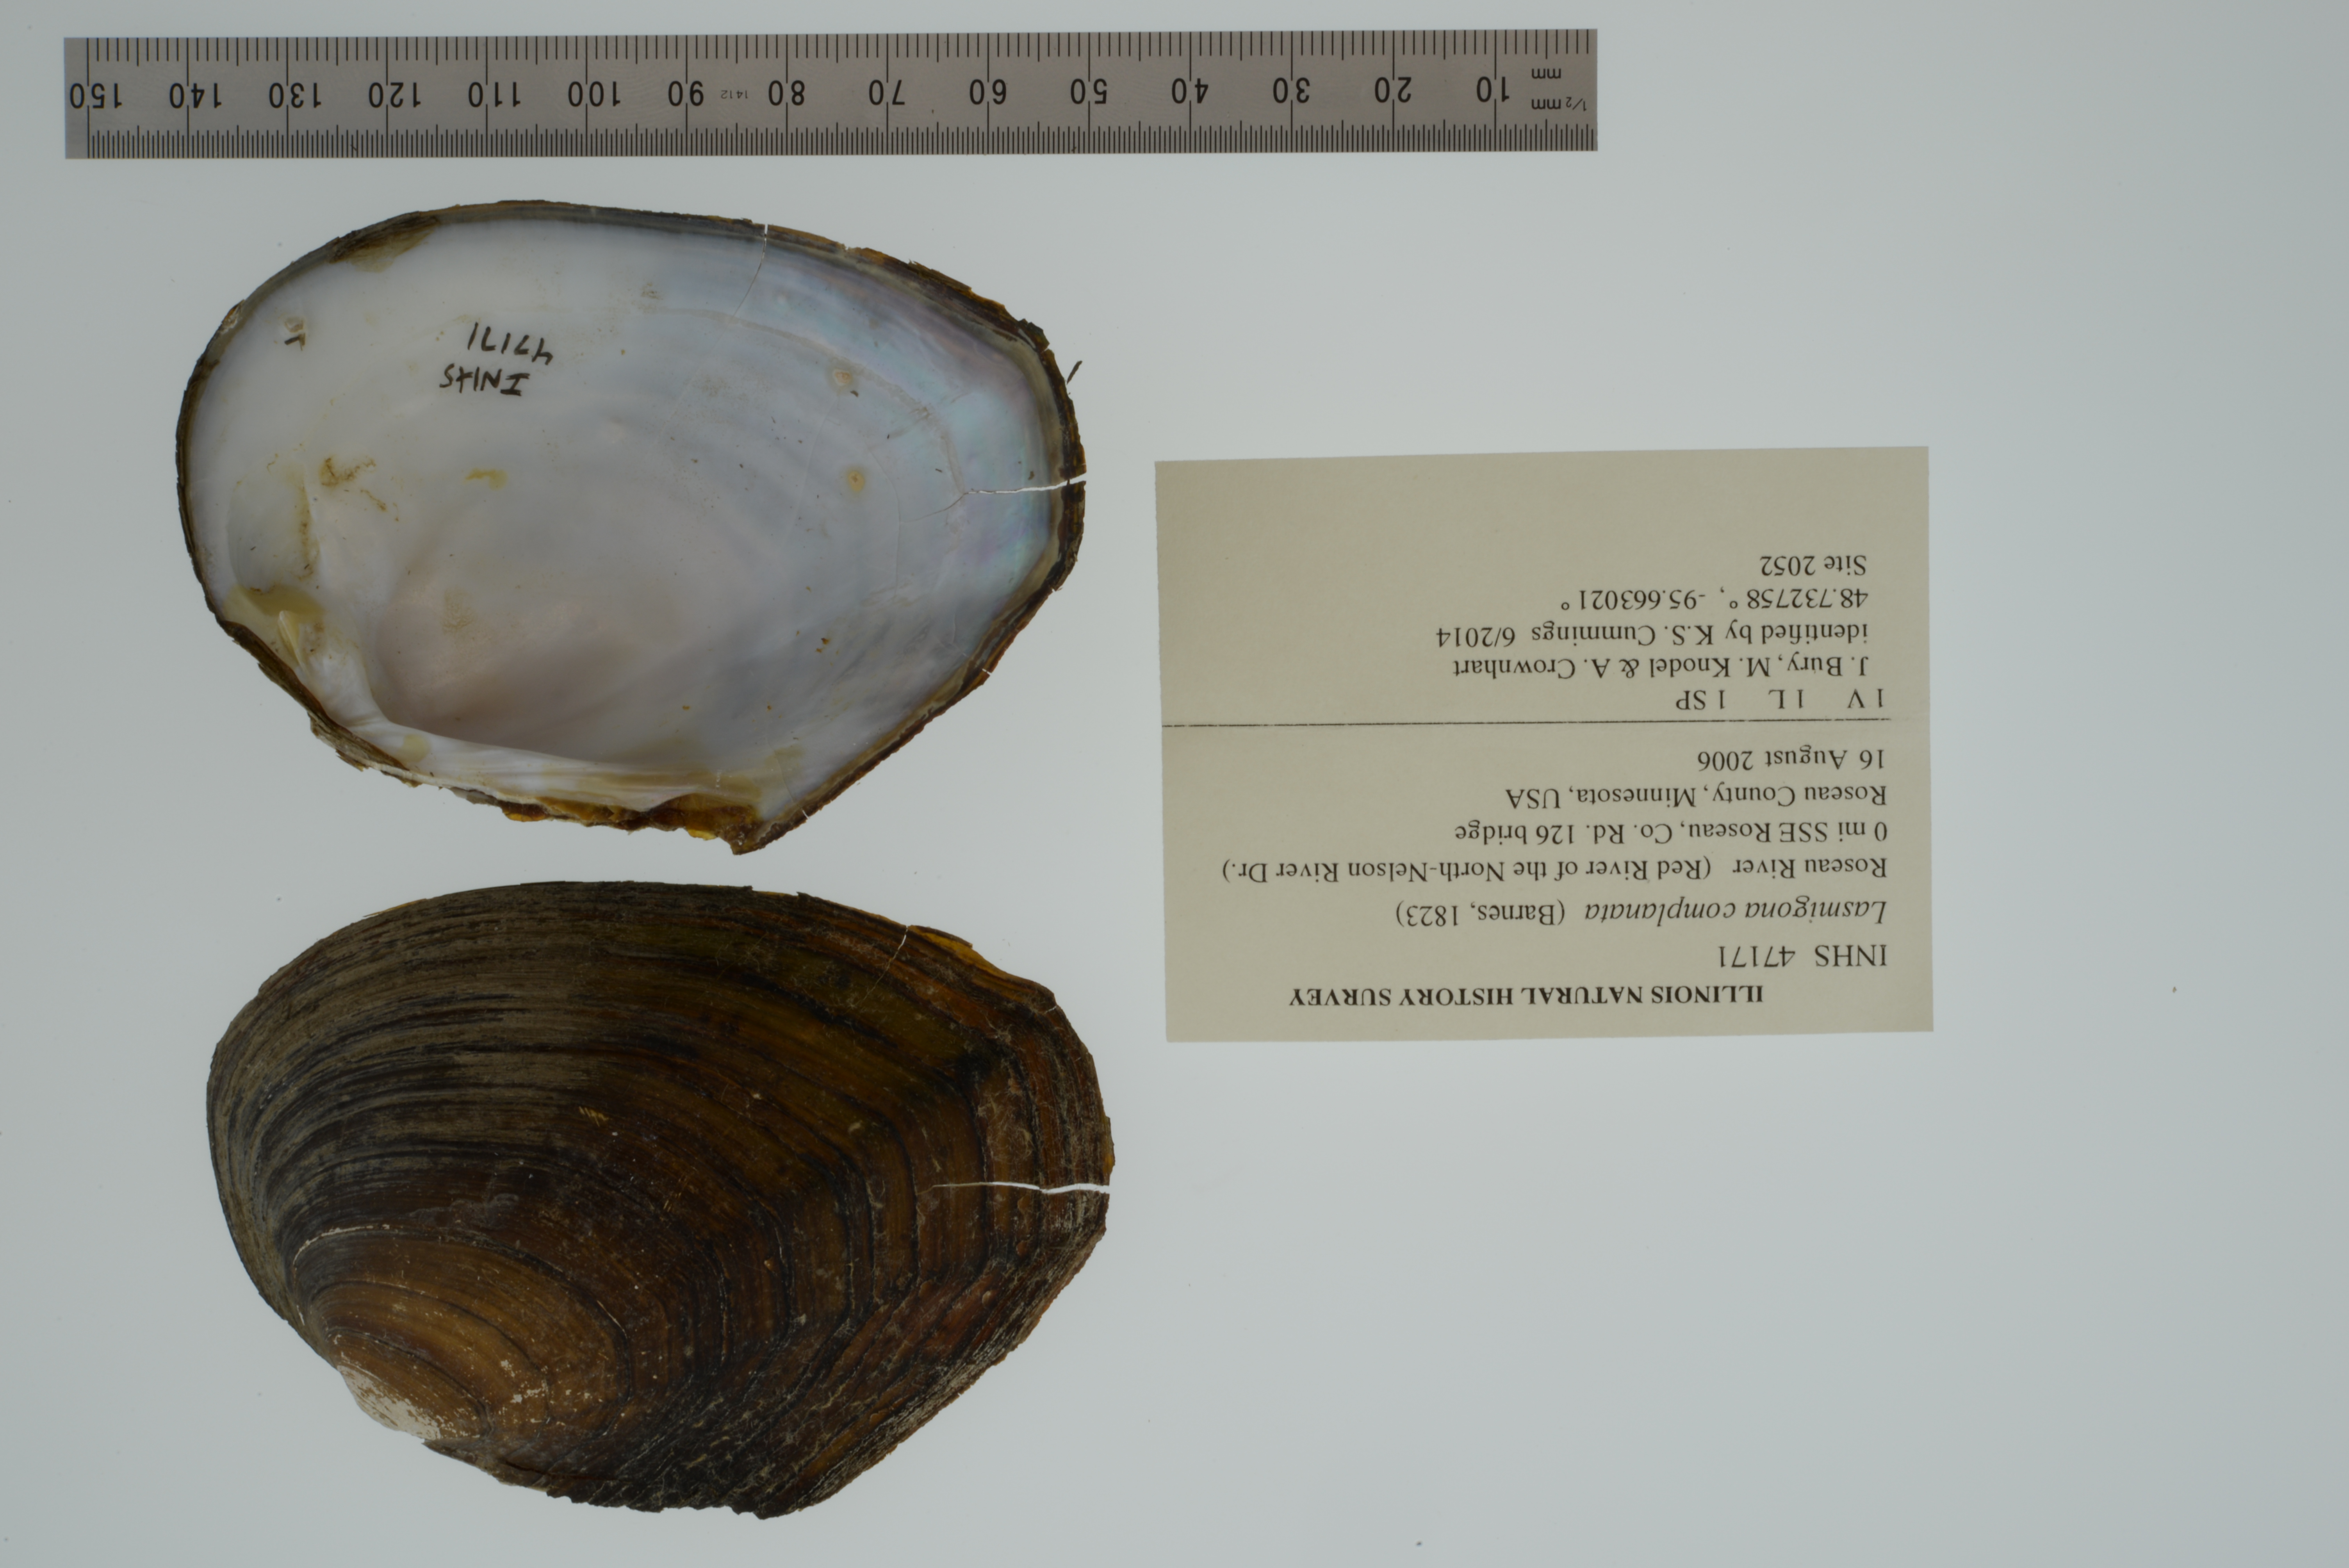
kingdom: Animalia
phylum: Mollusca
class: Bivalvia
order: Unionida
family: Unionidae
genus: Lasmigona
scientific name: Lasmigona complanata
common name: White heelsplitter
